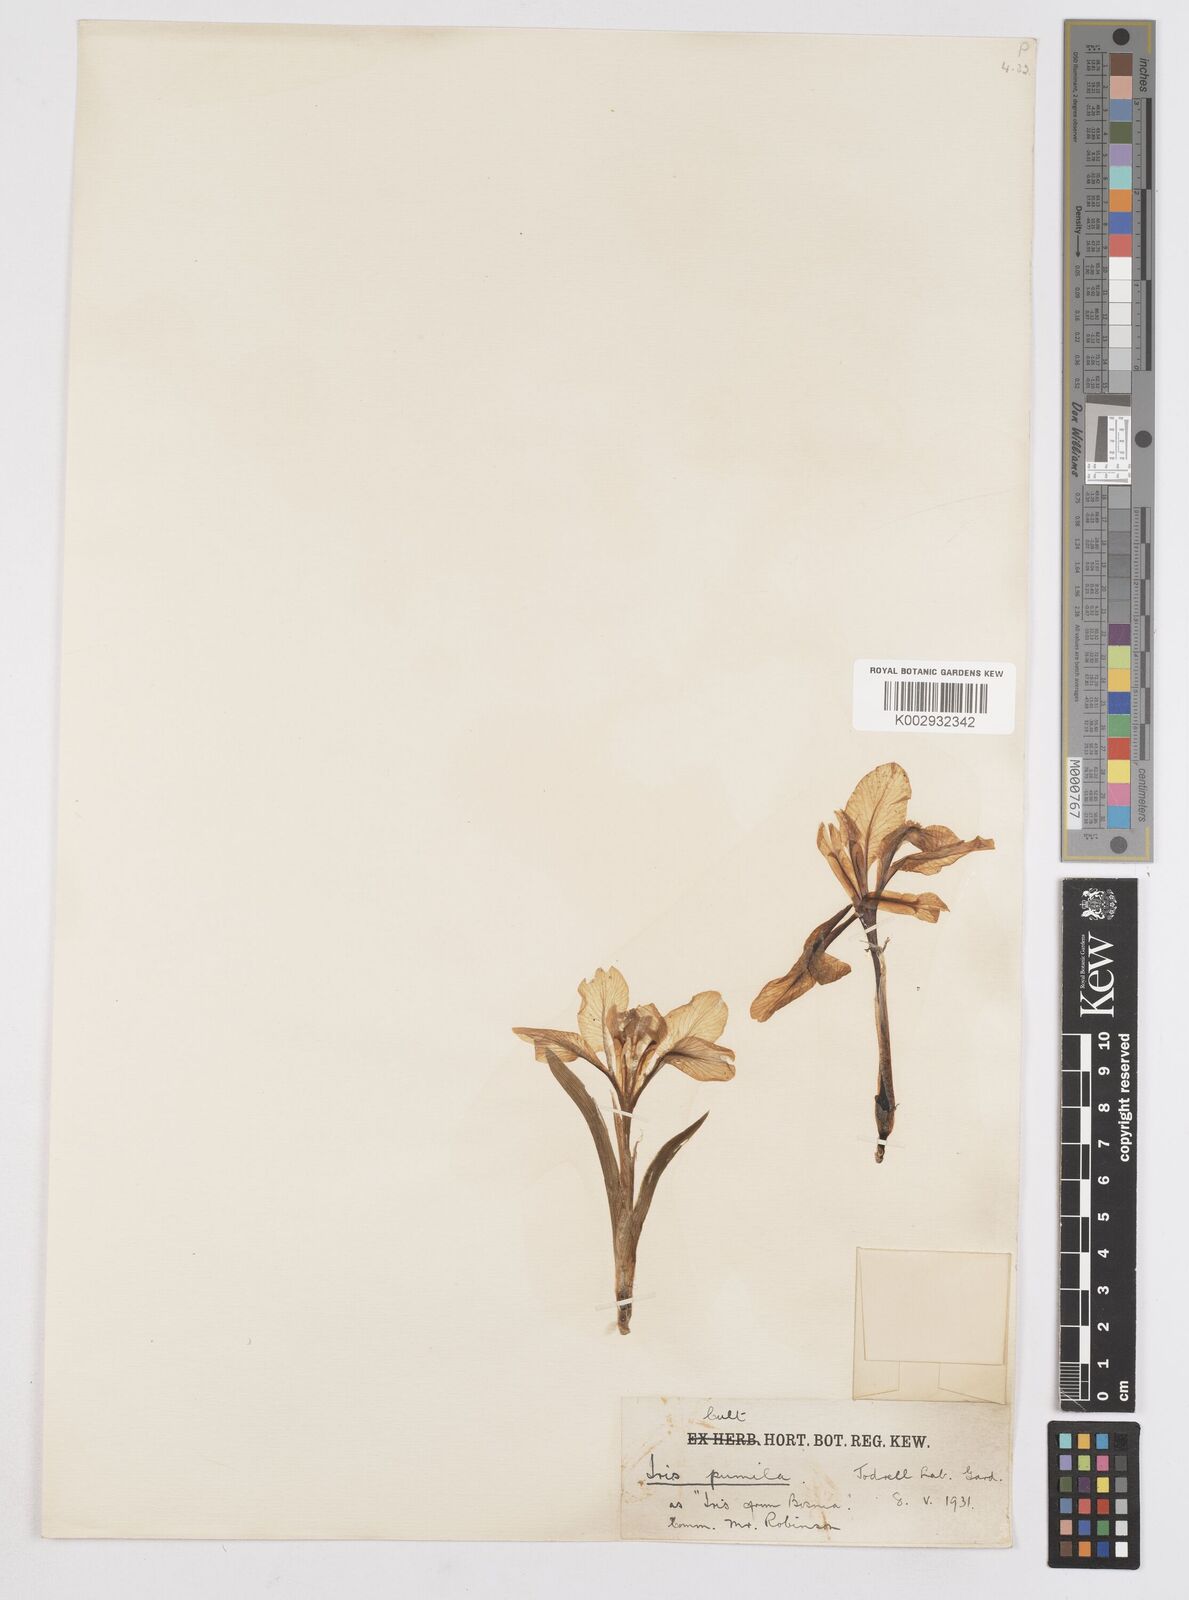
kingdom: Plantae
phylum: Tracheophyta
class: Liliopsida
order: Asparagales
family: Iridaceae
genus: Iris
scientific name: Iris pumila
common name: Dwarf iris
